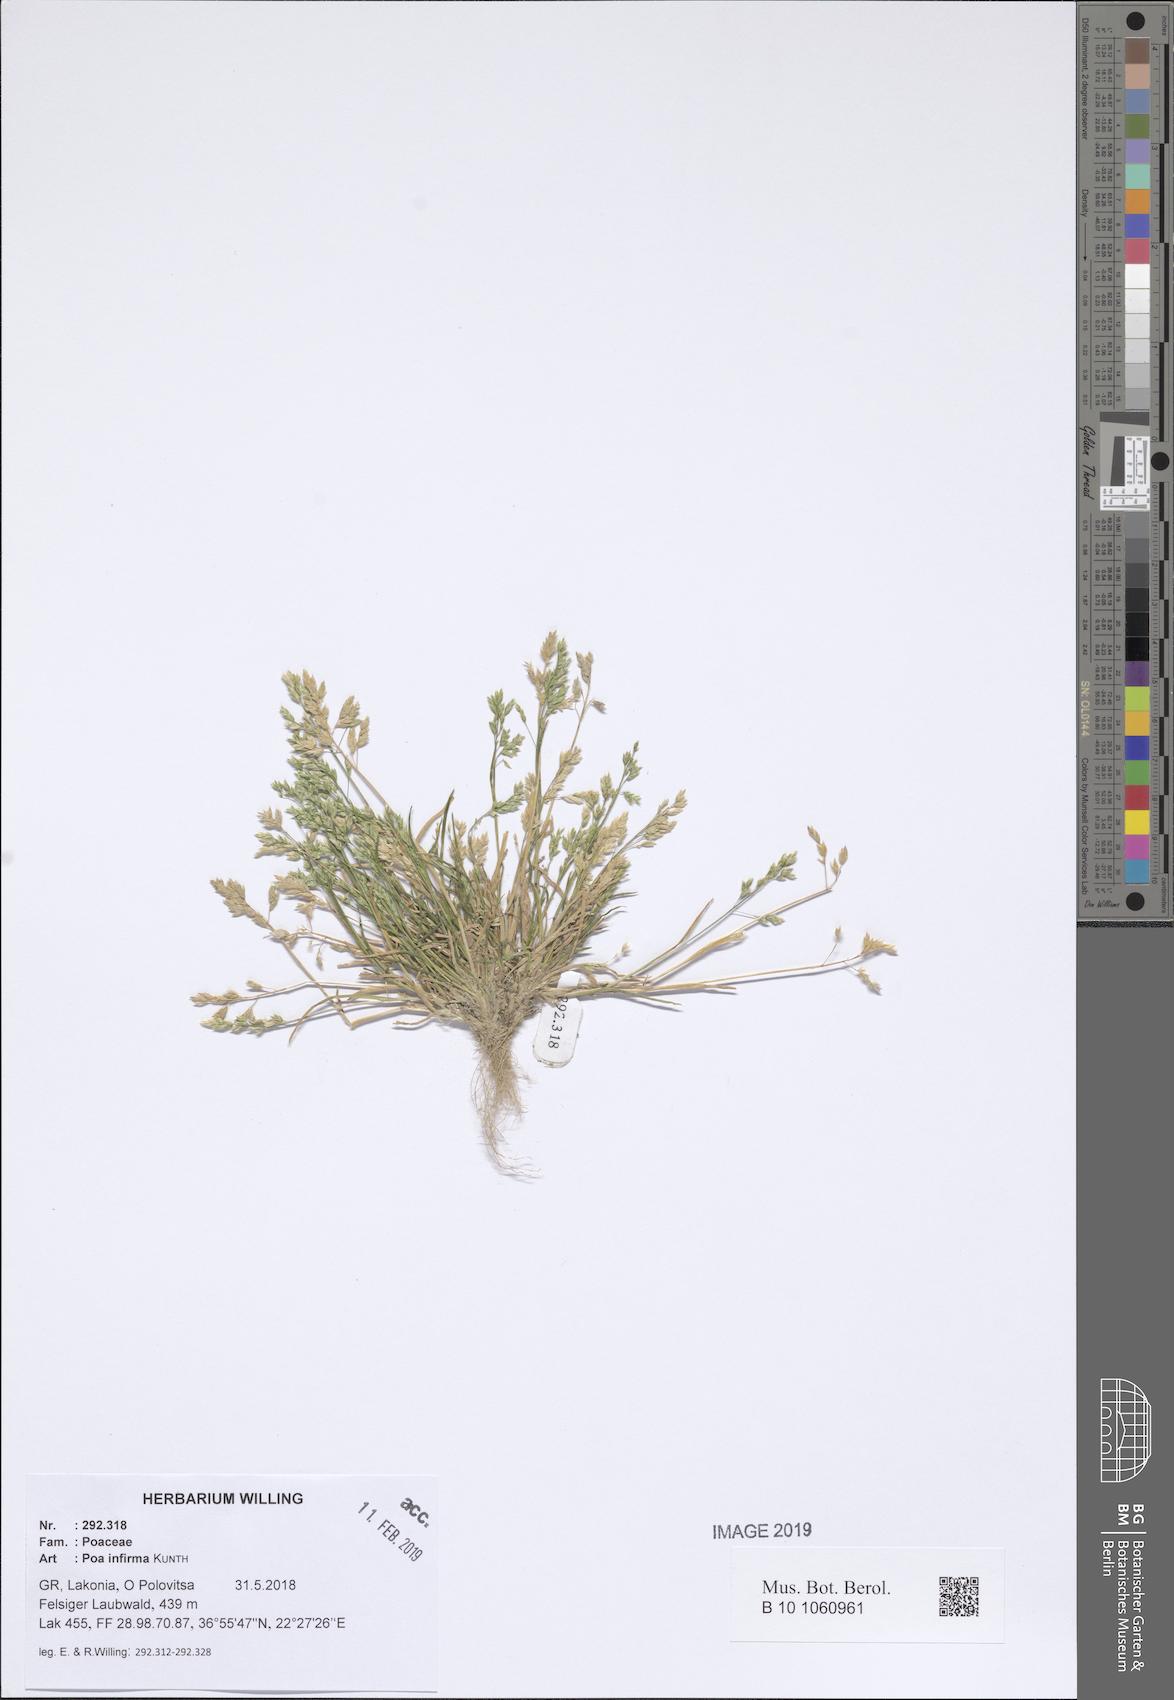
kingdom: Plantae
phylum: Tracheophyta
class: Liliopsida
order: Poales
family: Poaceae
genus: Poa
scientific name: Poa infirma
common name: Weak bluegrass
